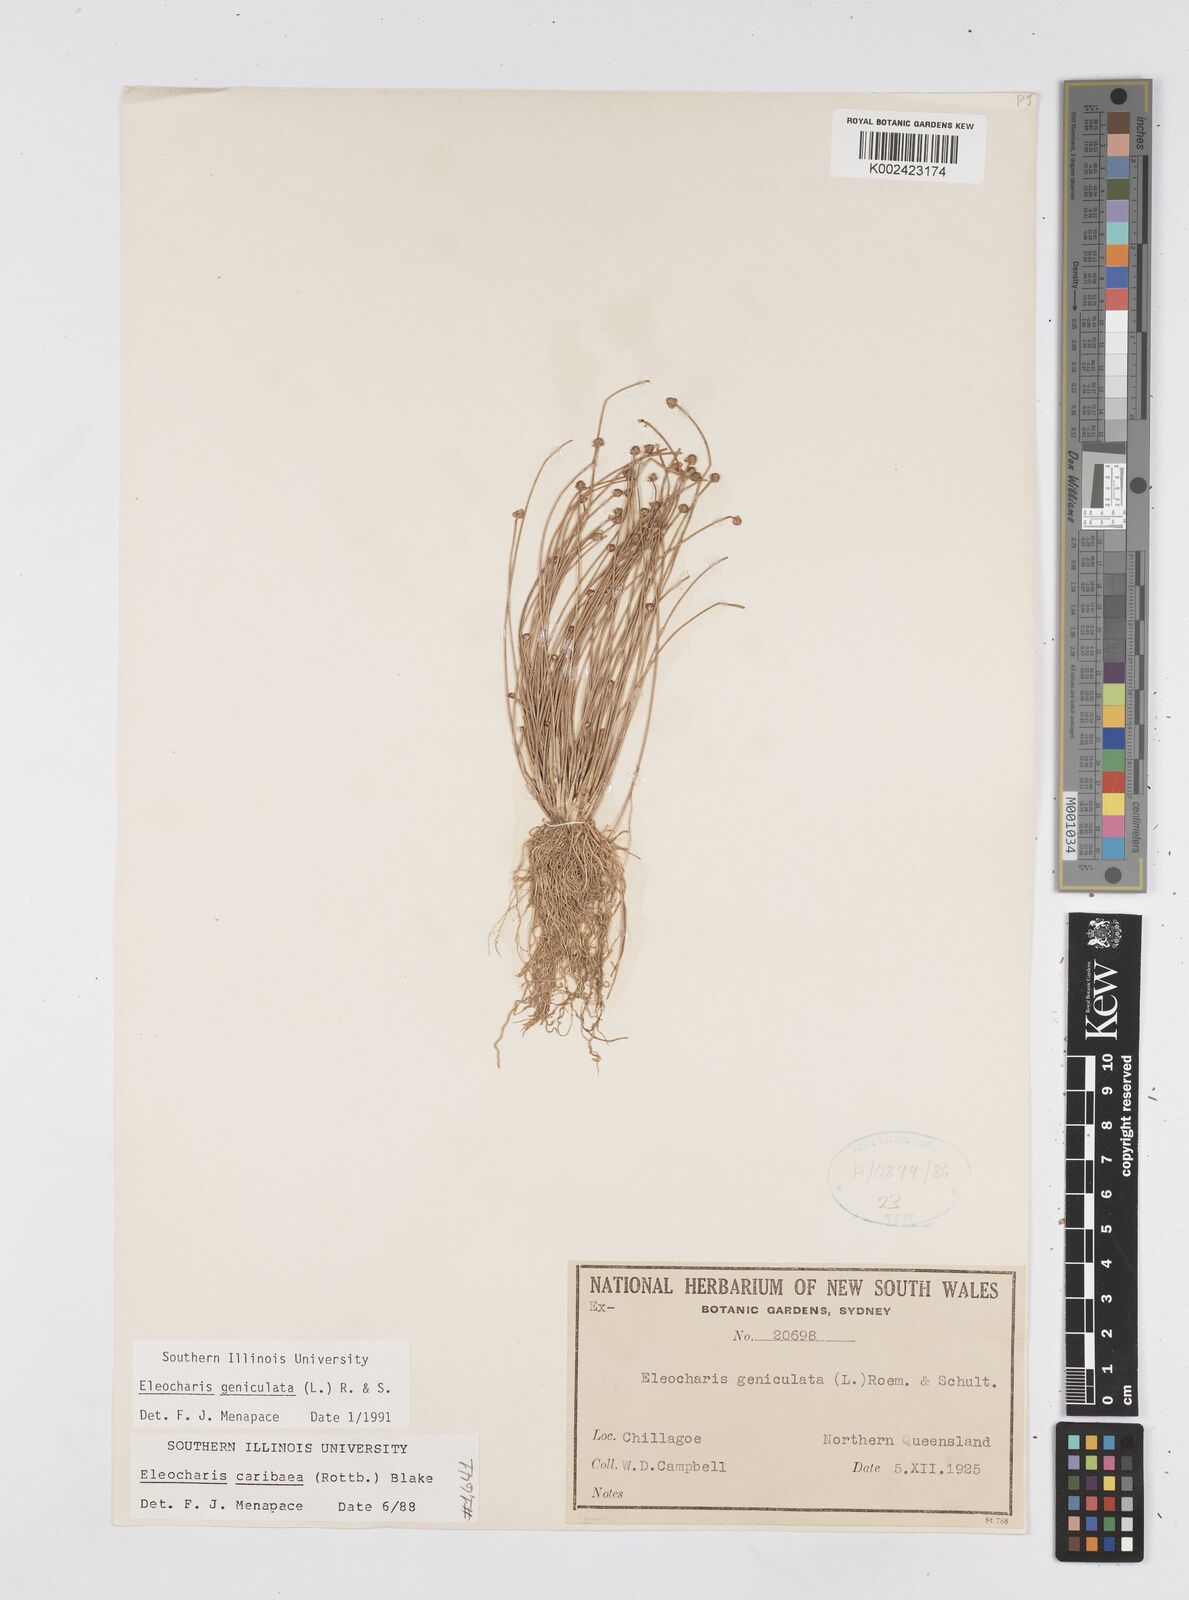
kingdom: Plantae
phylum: Tracheophyta
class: Liliopsida
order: Poales
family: Cyperaceae
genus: Eleocharis
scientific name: Eleocharis geniculata
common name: Canada spikesedge
